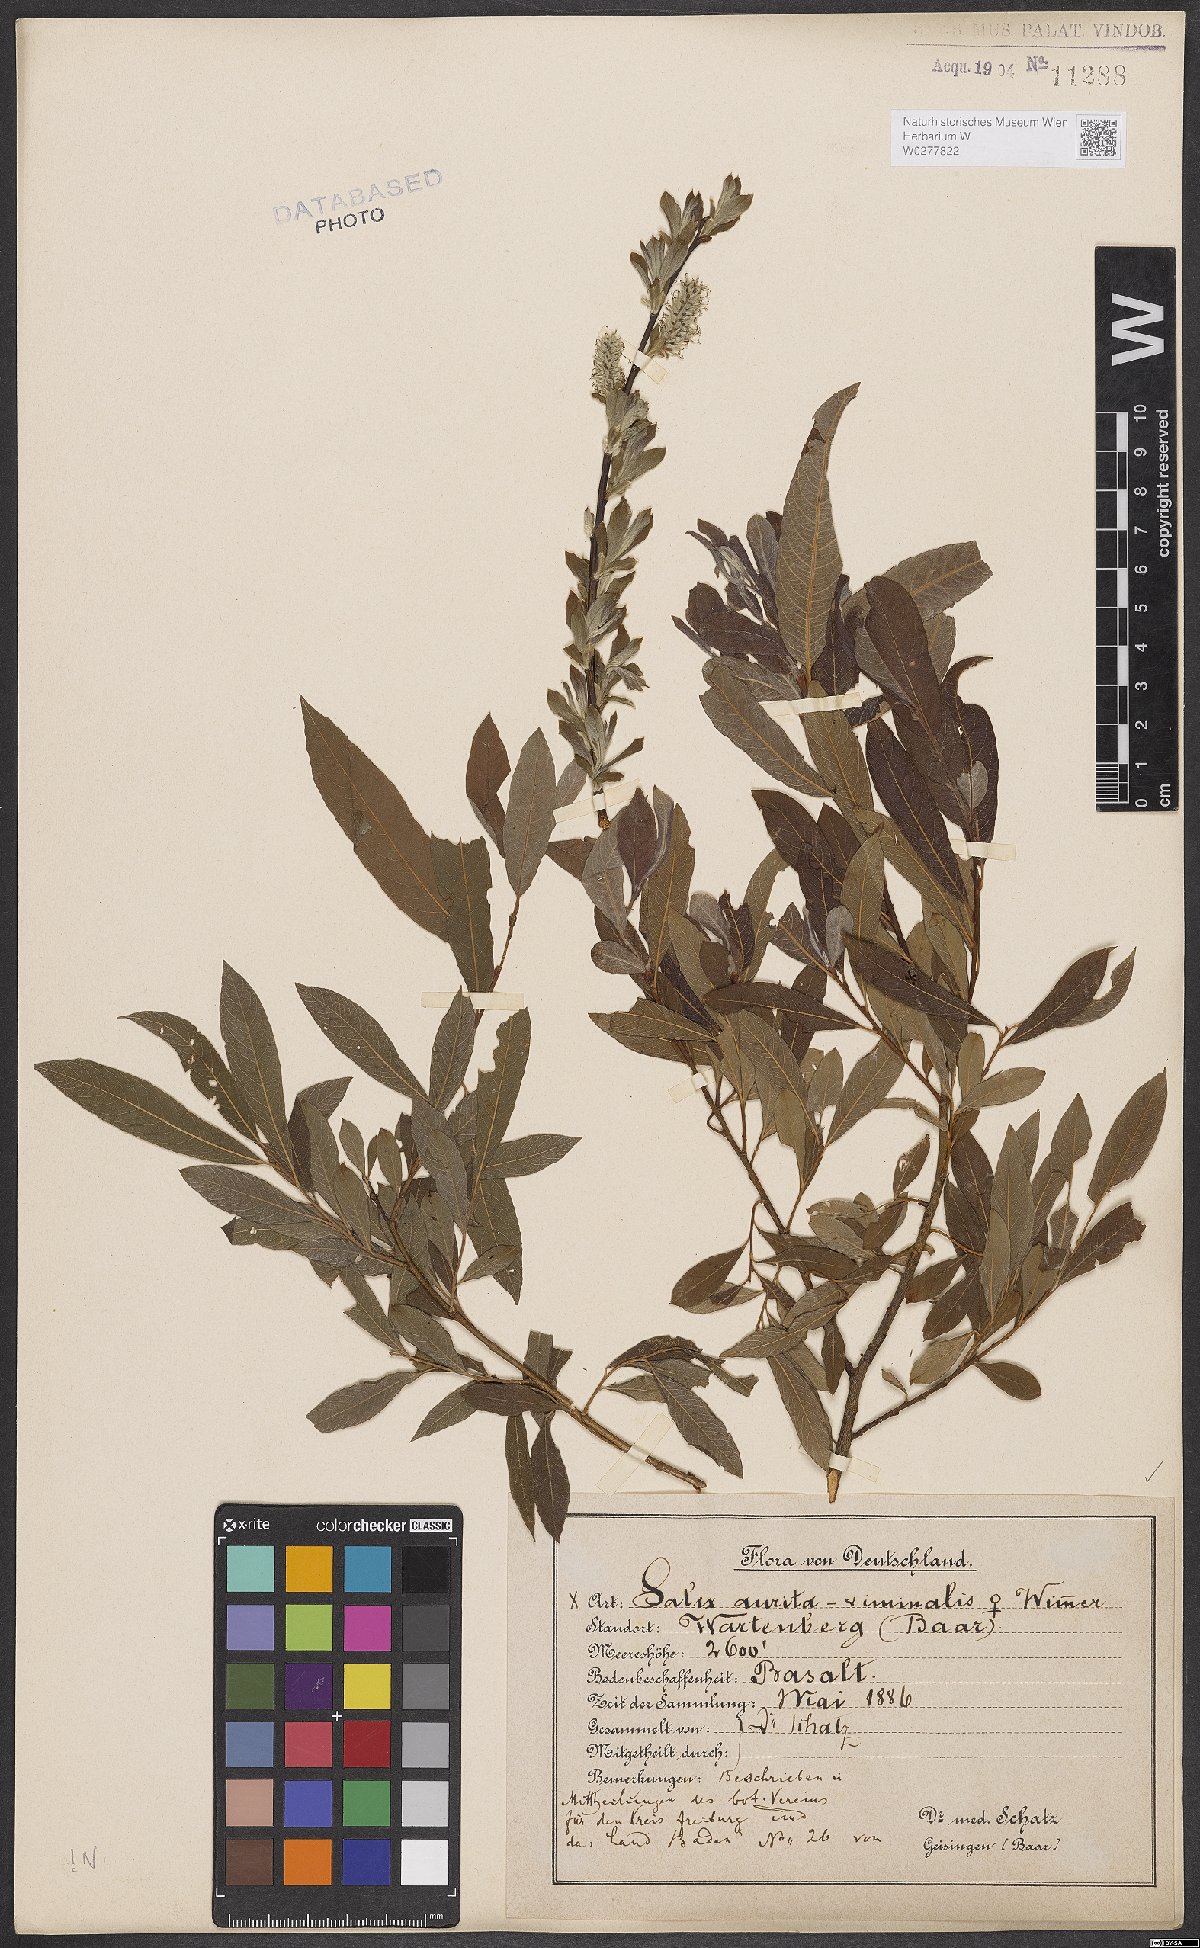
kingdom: Plantae
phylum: Tracheophyta
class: Magnoliopsida
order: Malpighiales
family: Salicaceae
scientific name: Salicaceae
